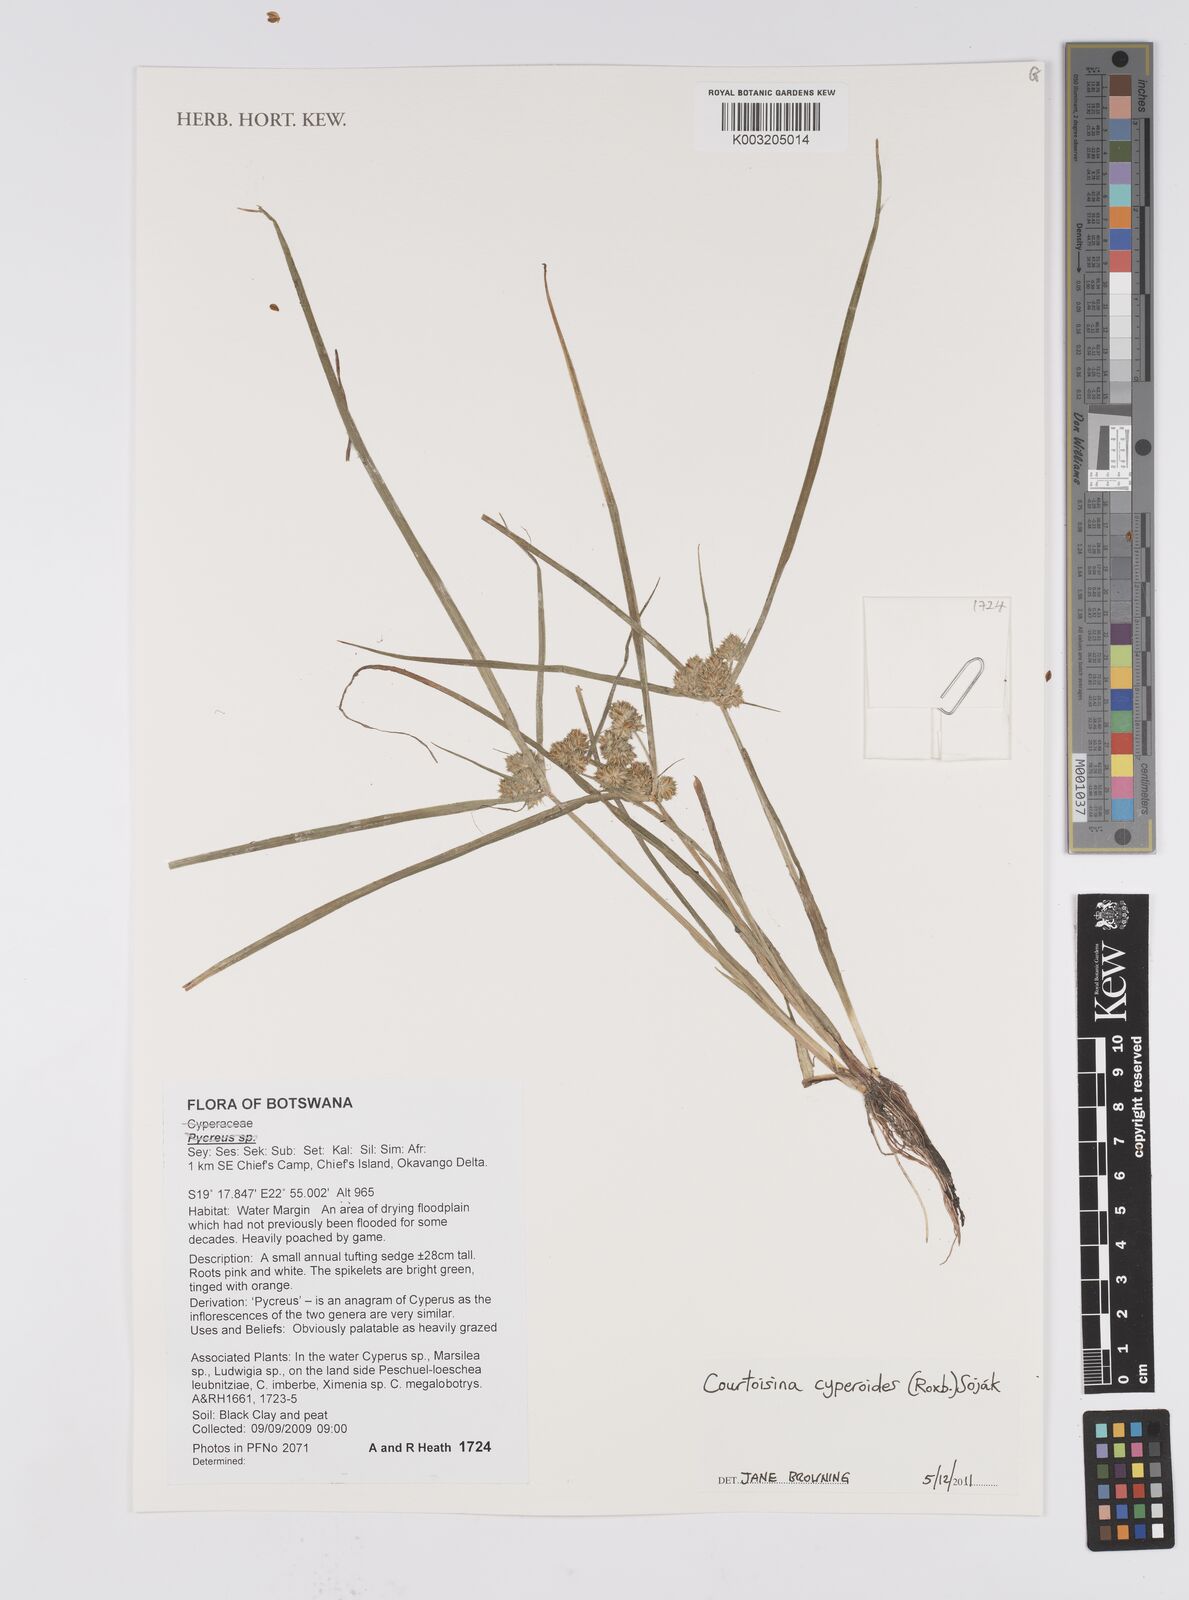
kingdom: Plantae
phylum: Tracheophyta
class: Liliopsida
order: Poales
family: Cyperaceae
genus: Cyperus
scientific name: Cyperus cyperoides
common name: Pacific island flat sedge
